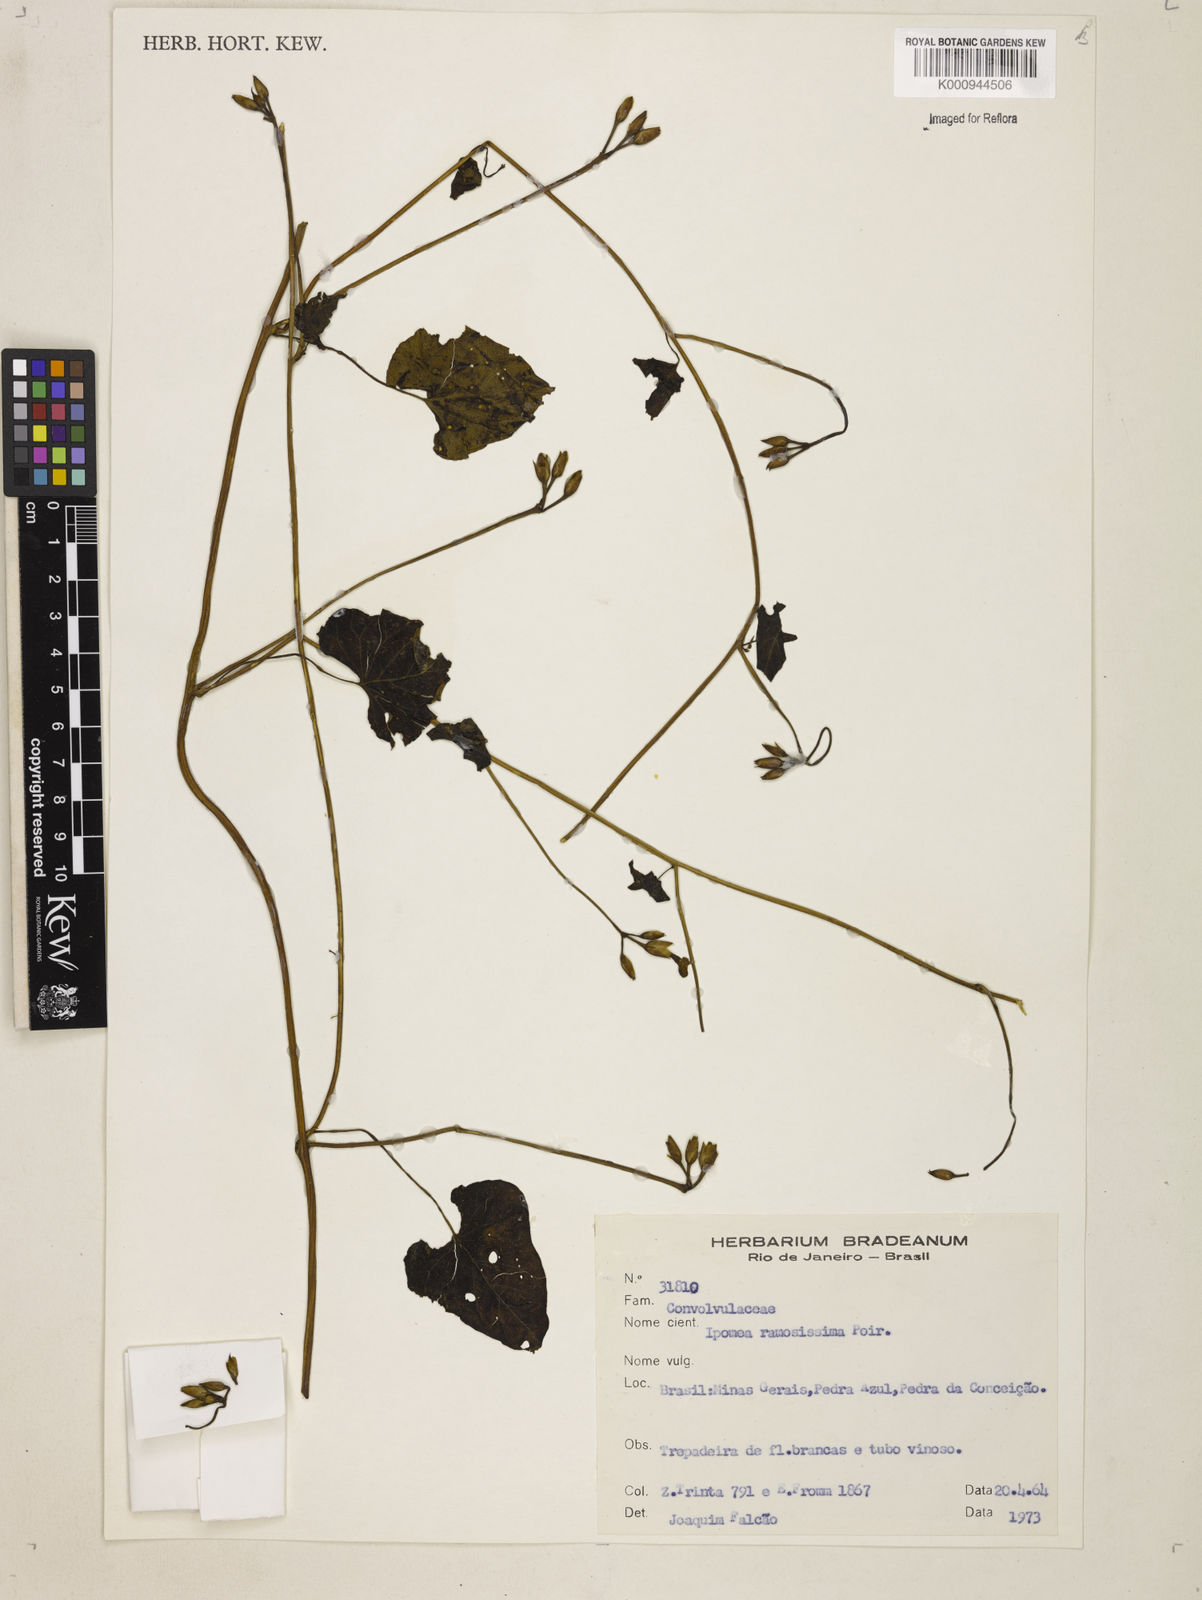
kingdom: Plantae
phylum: Tracheophyta
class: Magnoliopsida
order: Solanales
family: Convolvulaceae
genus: Ipomoea
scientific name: Ipomoea ramosissima
